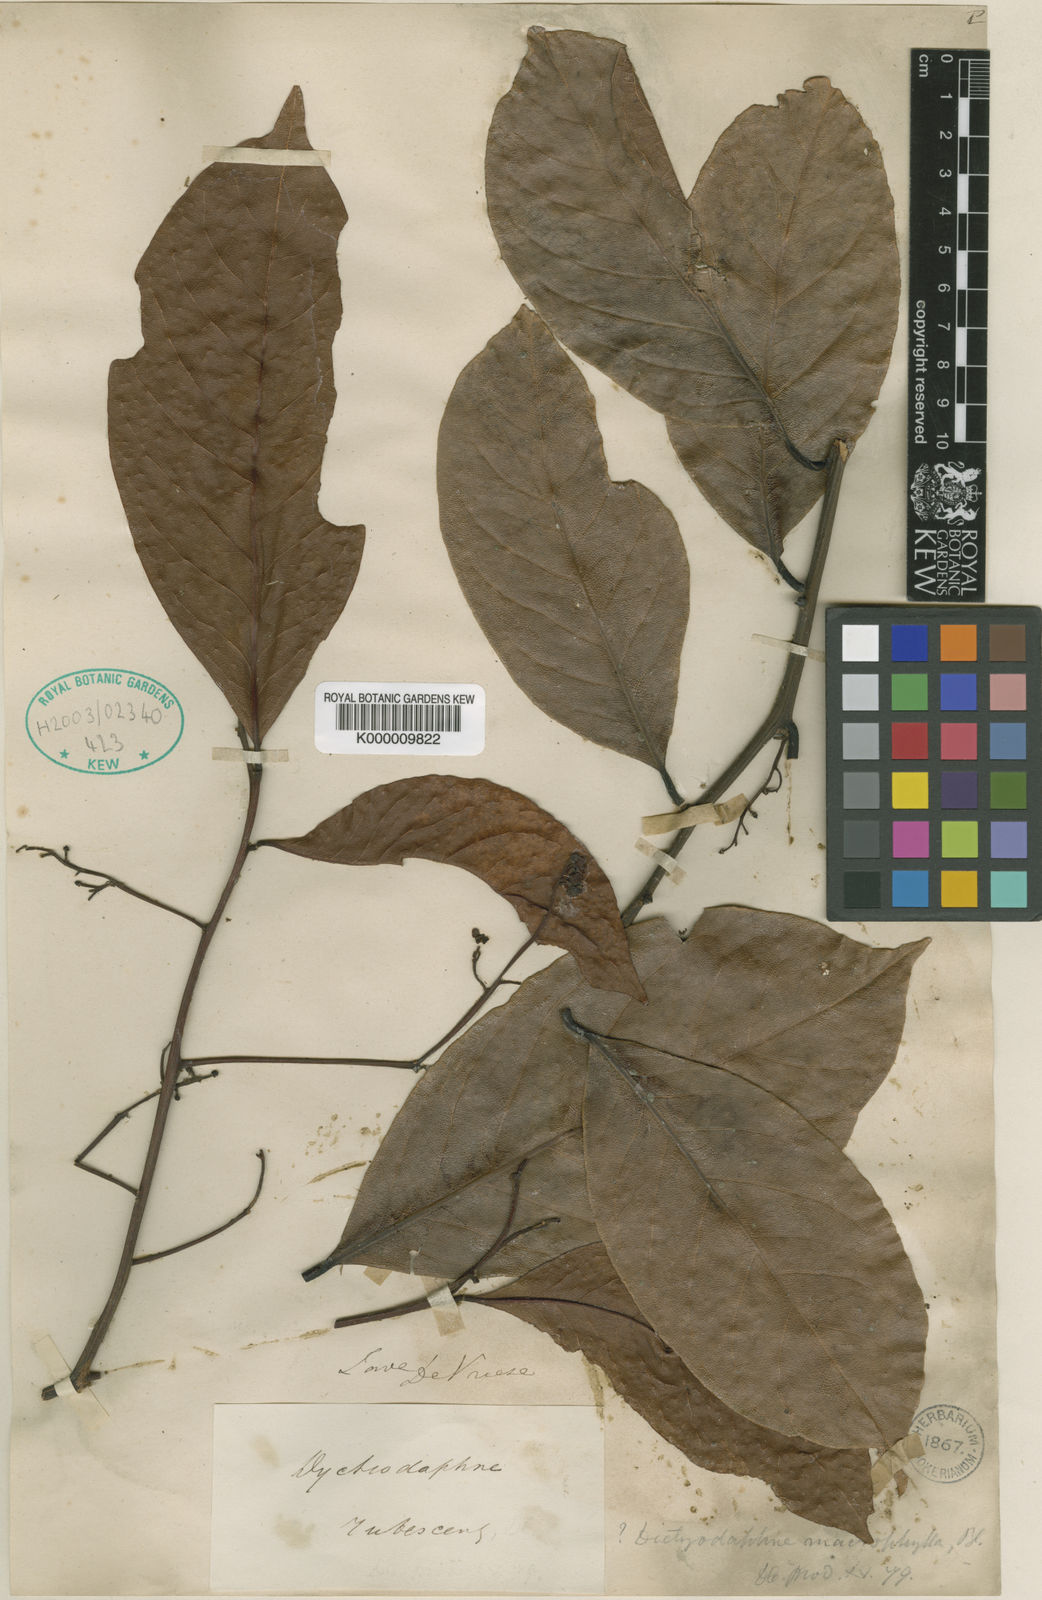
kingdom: Plantae
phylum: Tracheophyta
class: Magnoliopsida
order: Laurales
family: Lauraceae
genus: Endiandra
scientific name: Endiandra macrophylla
